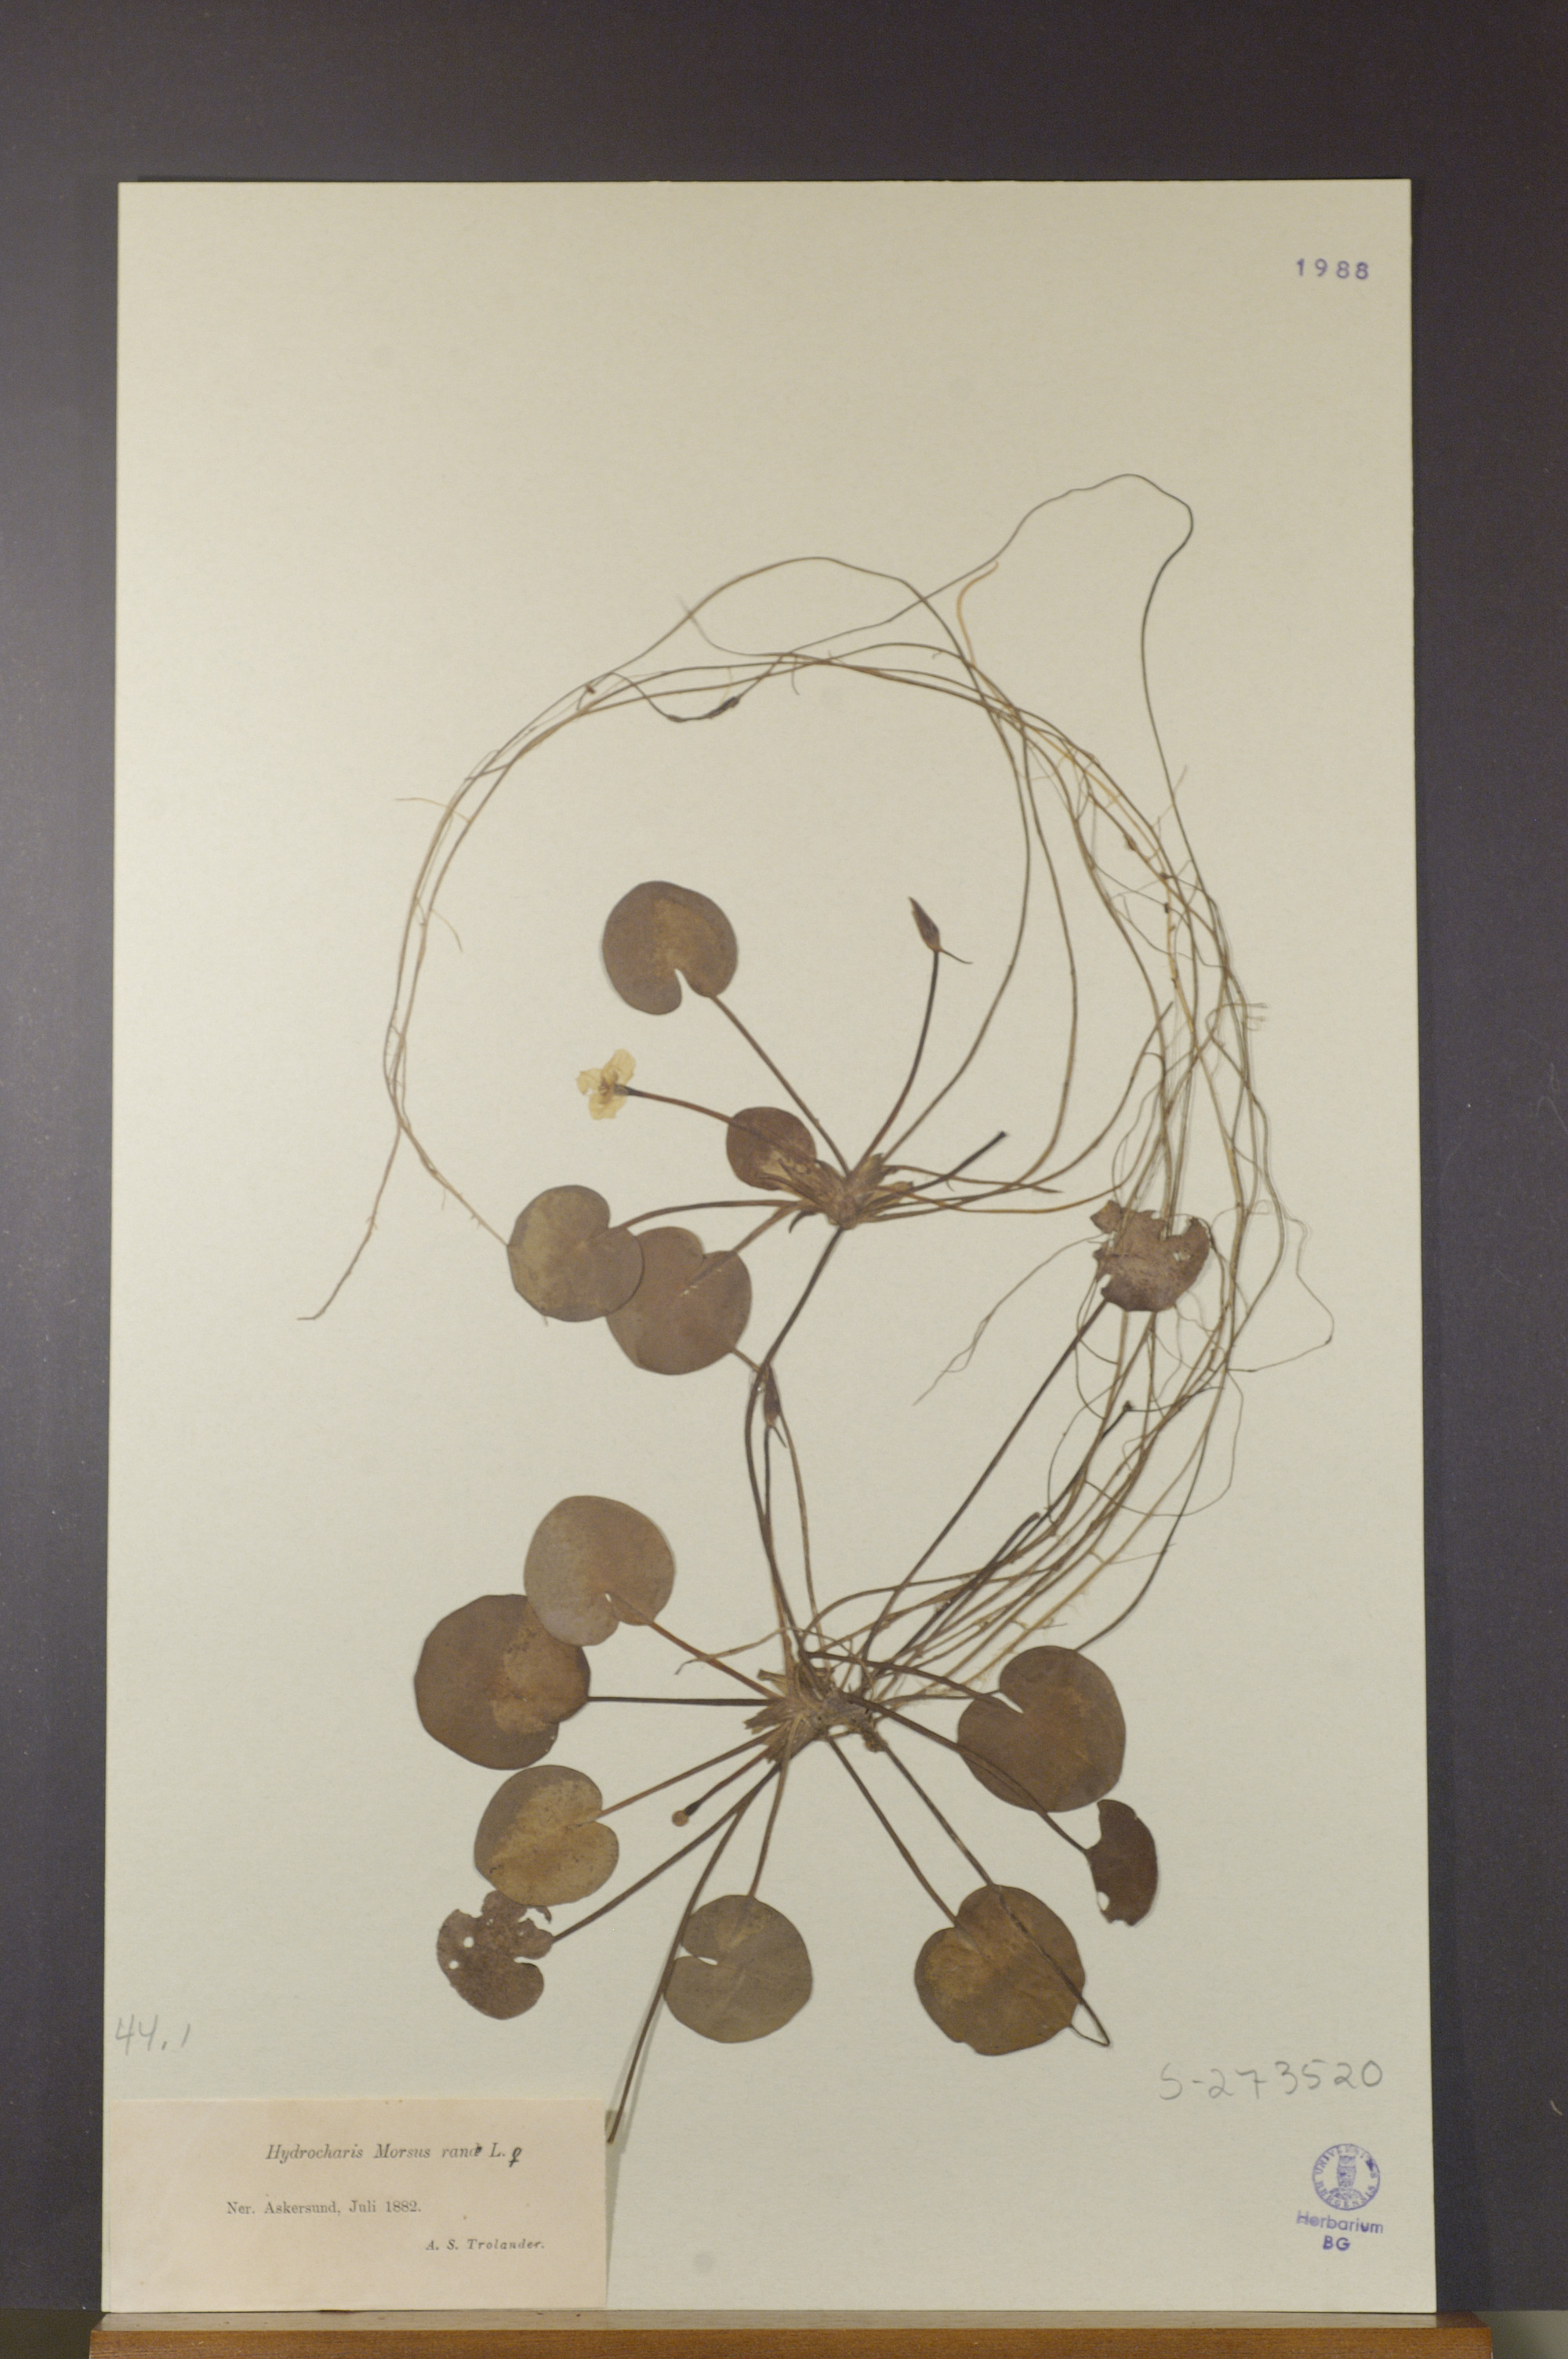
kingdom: Plantae
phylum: Tracheophyta
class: Liliopsida
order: Alismatales
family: Hydrocharitaceae
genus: Hydrocharis
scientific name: Hydrocharis morsus-ranae
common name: Frogbit
